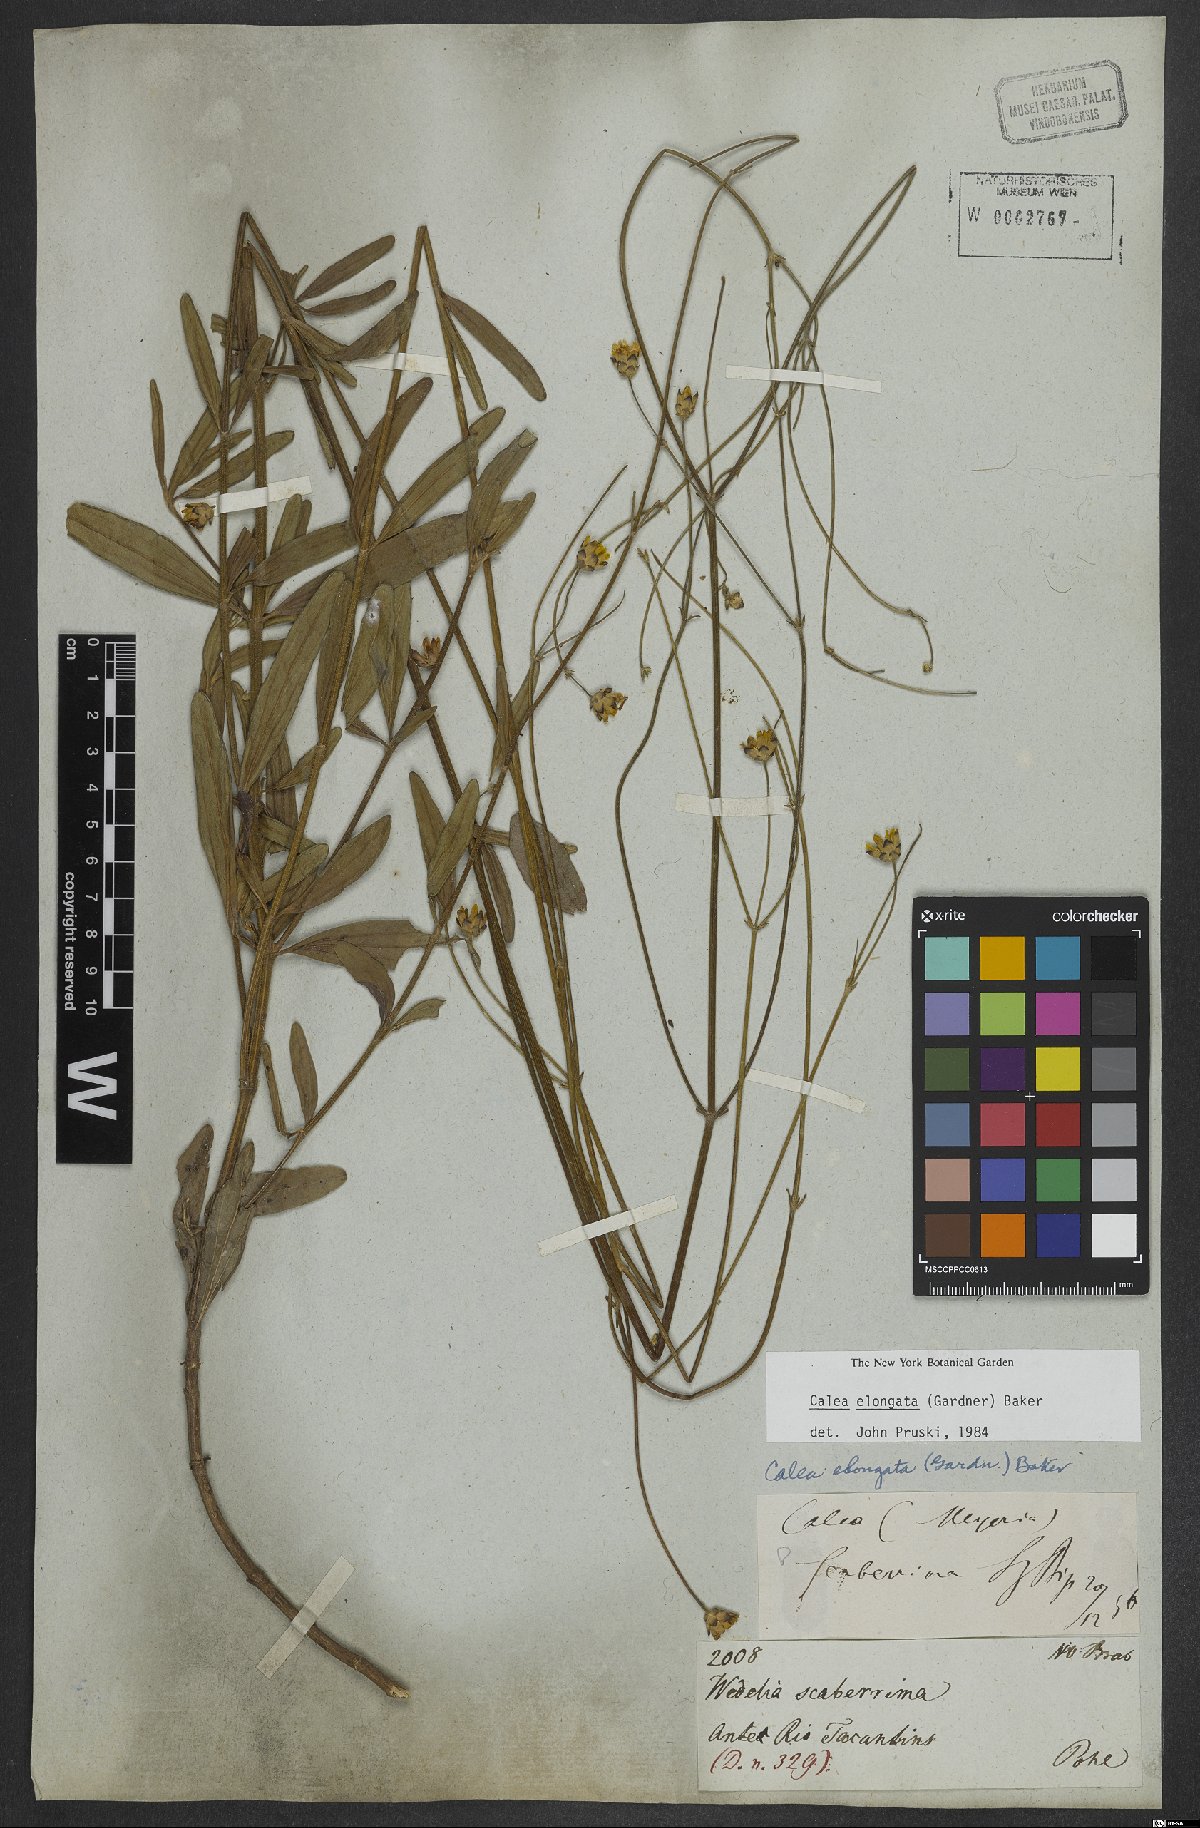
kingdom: Plantae
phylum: Tracheophyta
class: Magnoliopsida
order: Asterales
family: Asteraceae
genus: Calea
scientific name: Calea elongata
